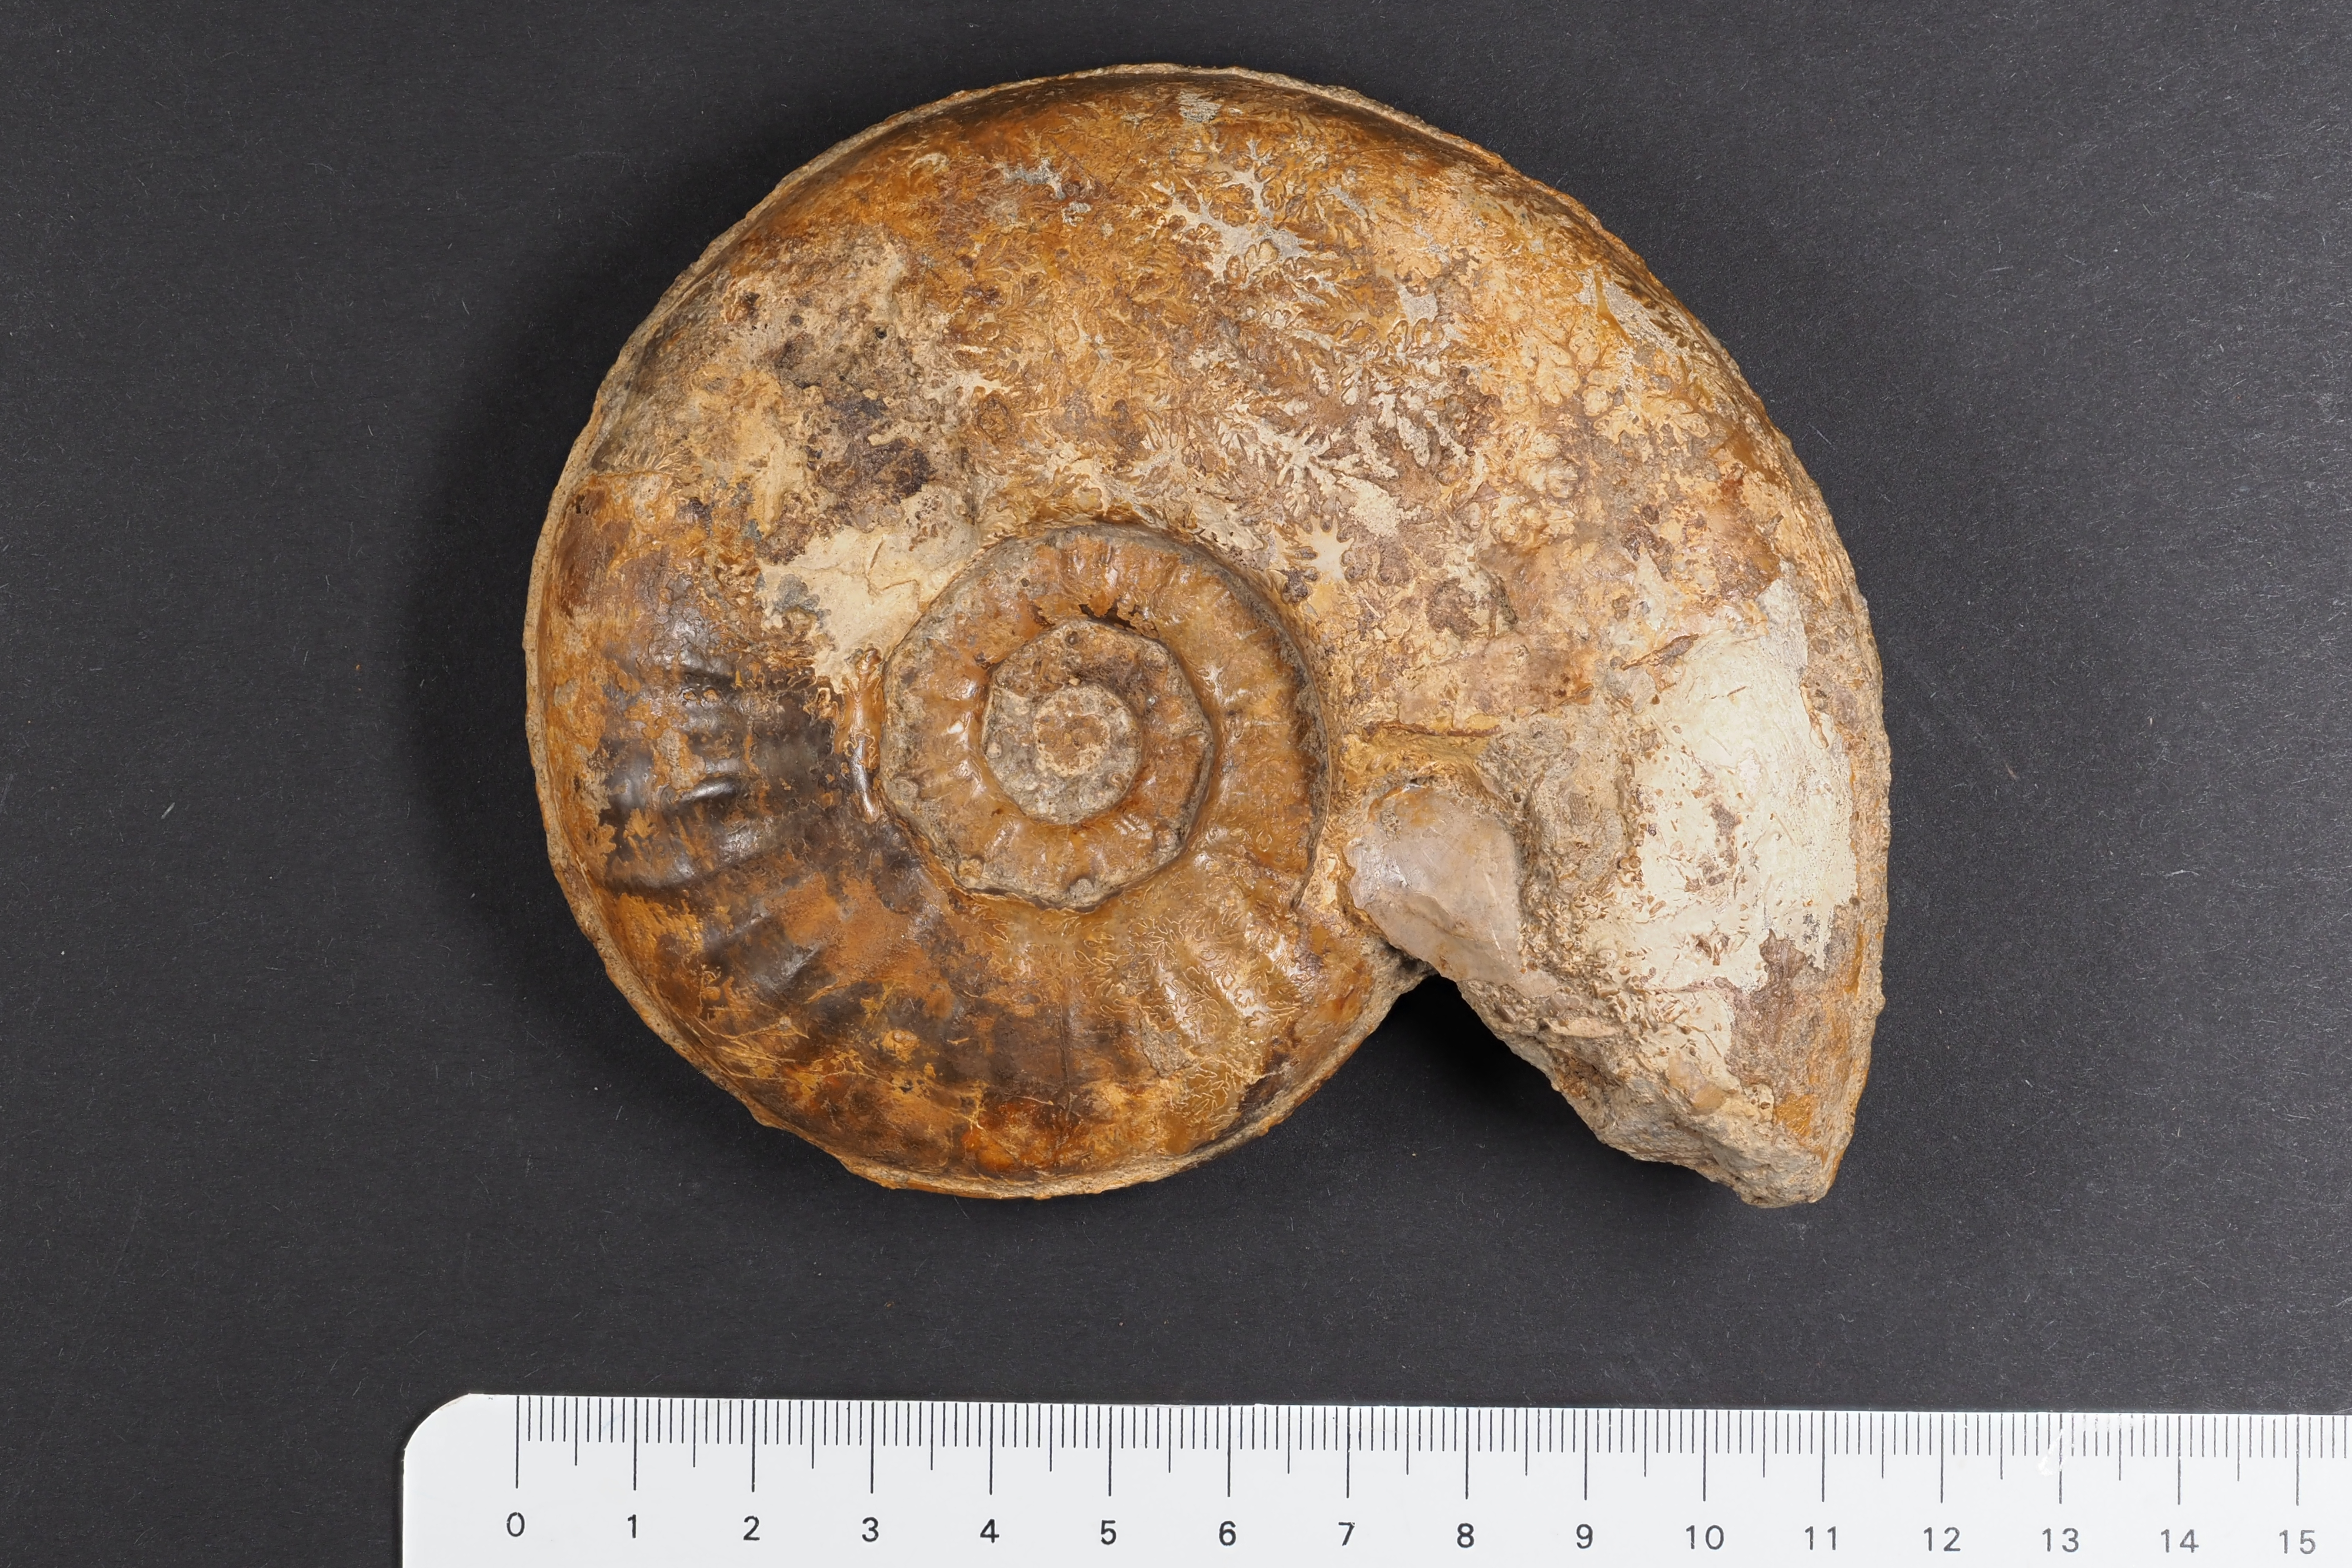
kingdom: Animalia
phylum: Mollusca
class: Cephalopoda
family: Sonniniidae
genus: Sonninia
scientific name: Sonninia propinquans
